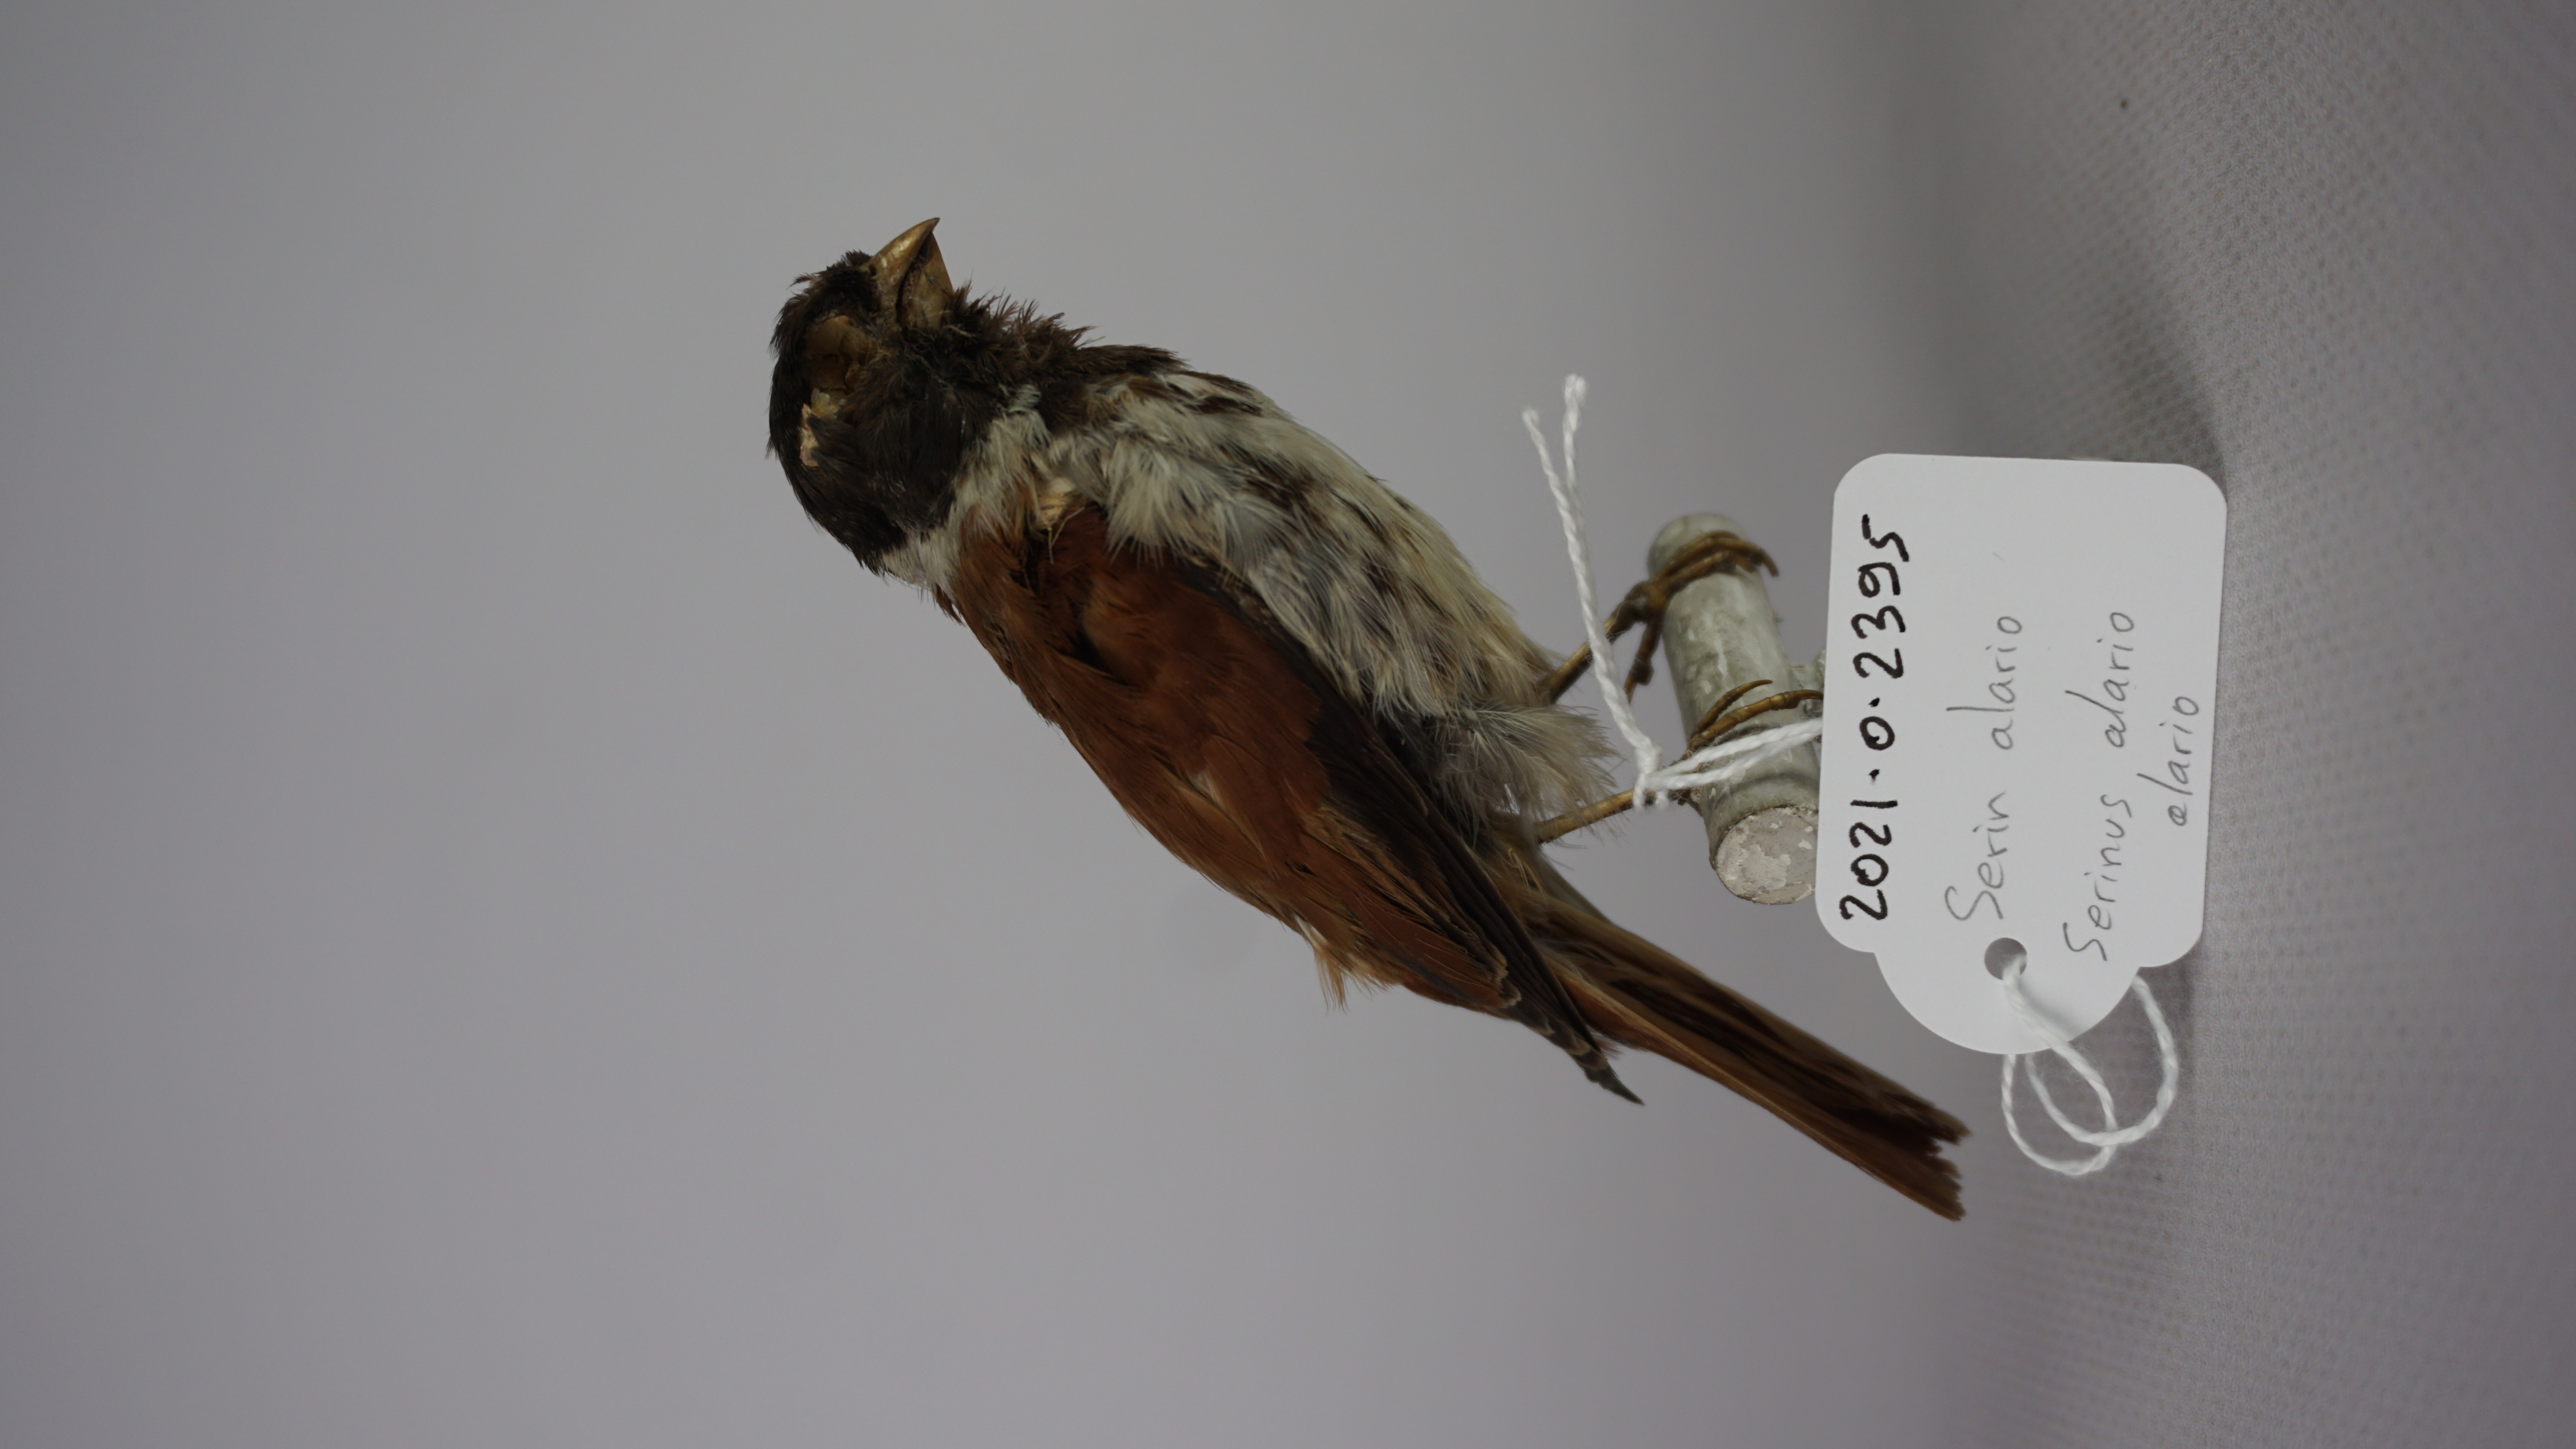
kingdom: Animalia
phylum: Chordata
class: Aves
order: Passeriformes
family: Fringillidae
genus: Serinus
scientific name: Serinus alario
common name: Black-headed canary
